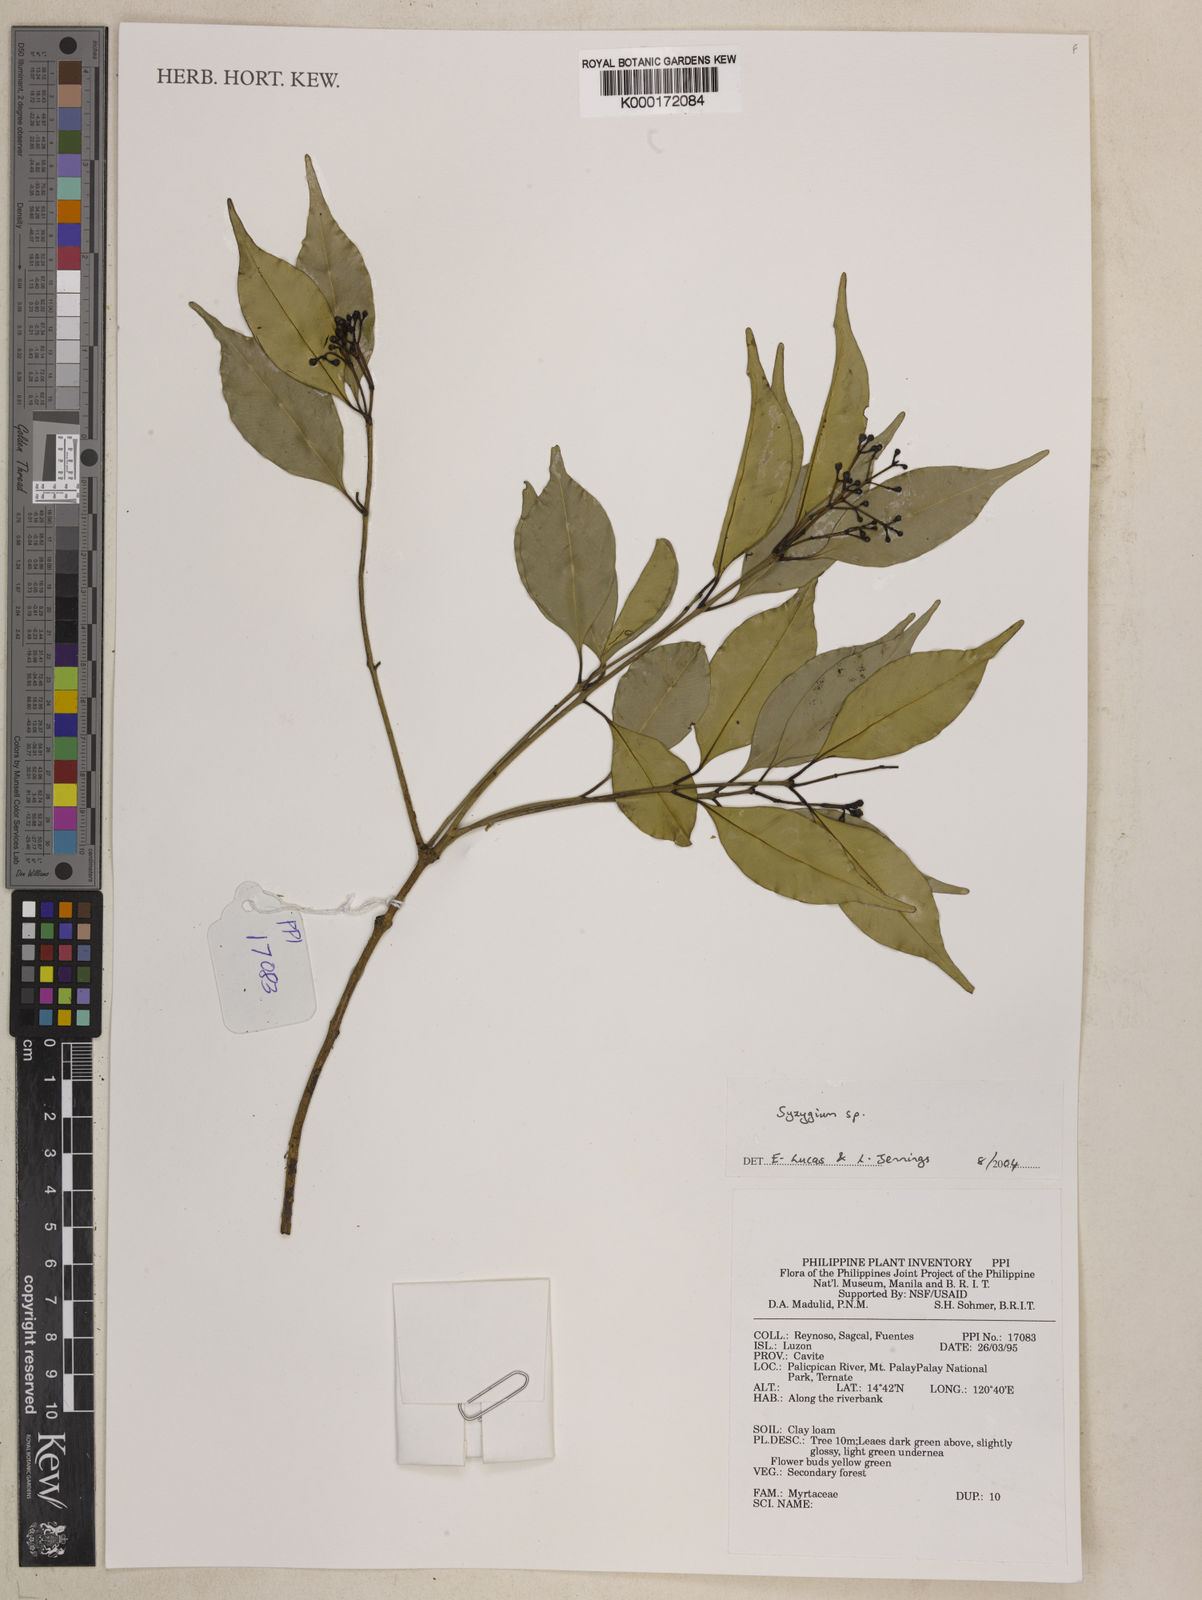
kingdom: Plantae
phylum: Tracheophyta
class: Magnoliopsida
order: Myrtales
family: Myrtaceae
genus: Syzygium
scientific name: Syzygium
